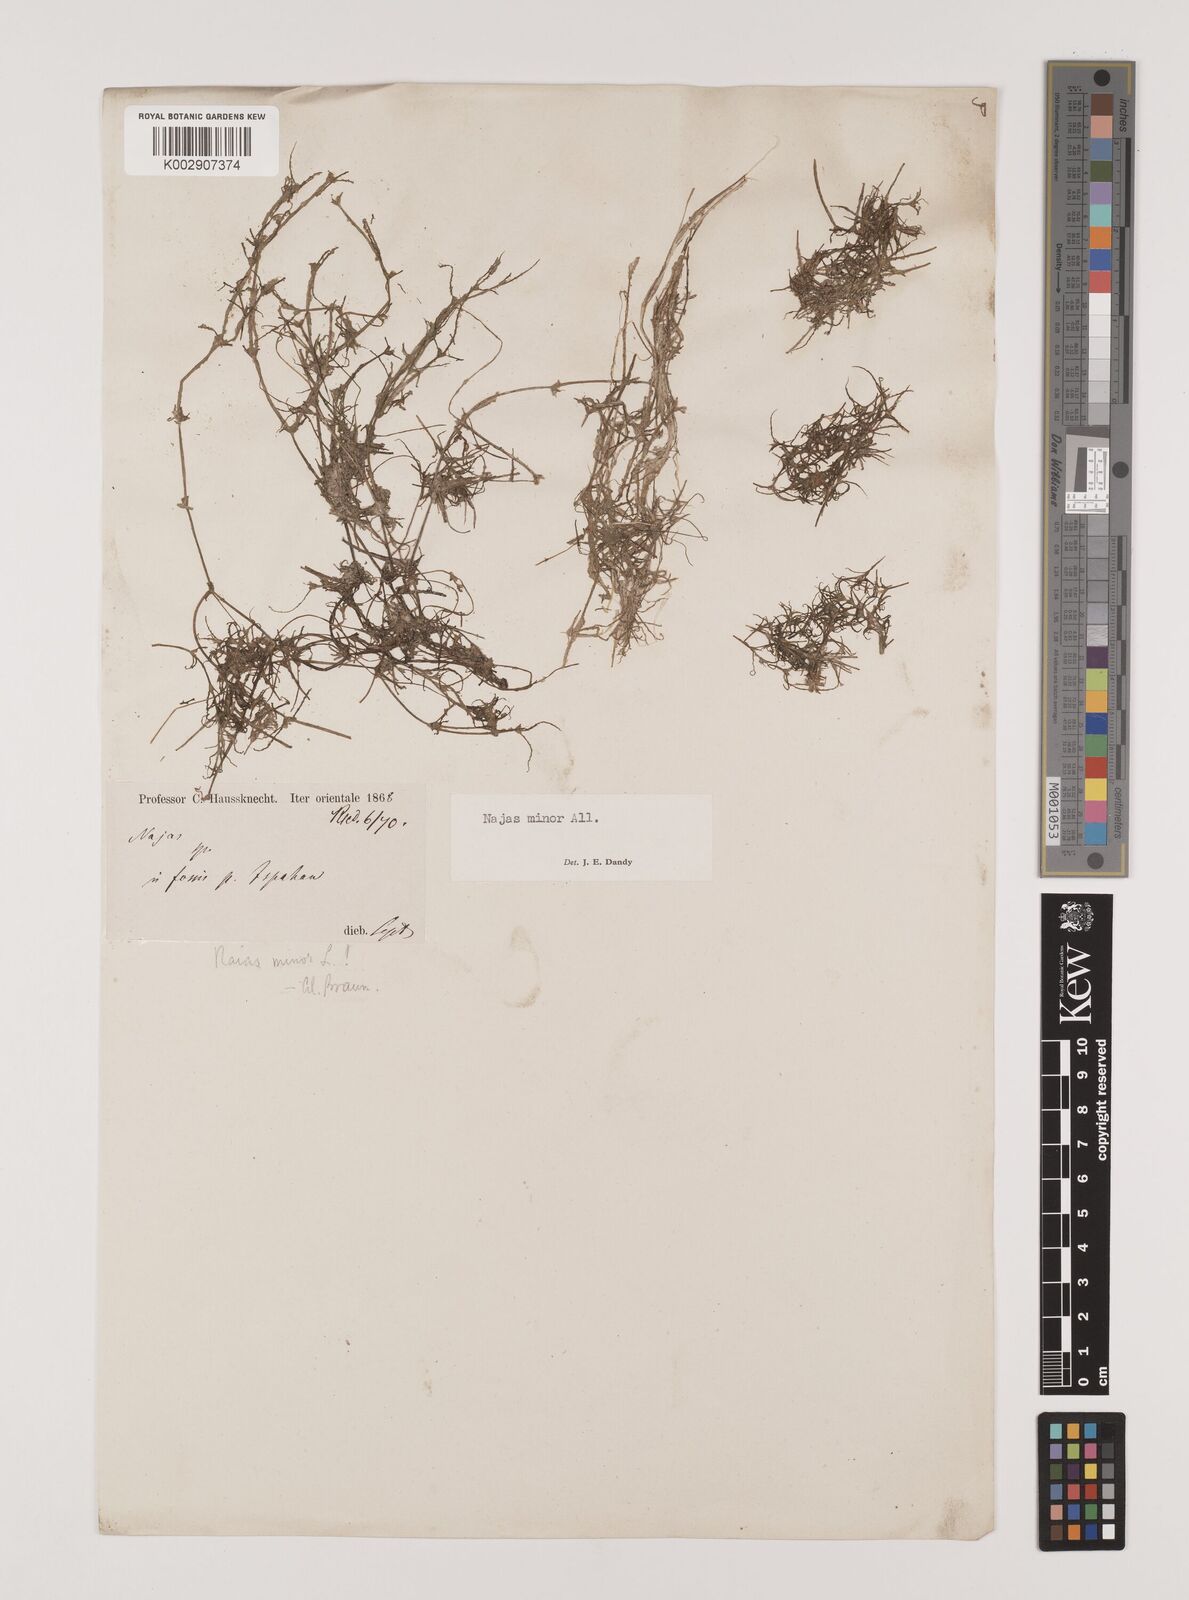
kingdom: Plantae
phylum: Tracheophyta
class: Liliopsida
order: Alismatales
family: Hydrocharitaceae
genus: Najas
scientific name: Najas minor
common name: Brittle naiad
